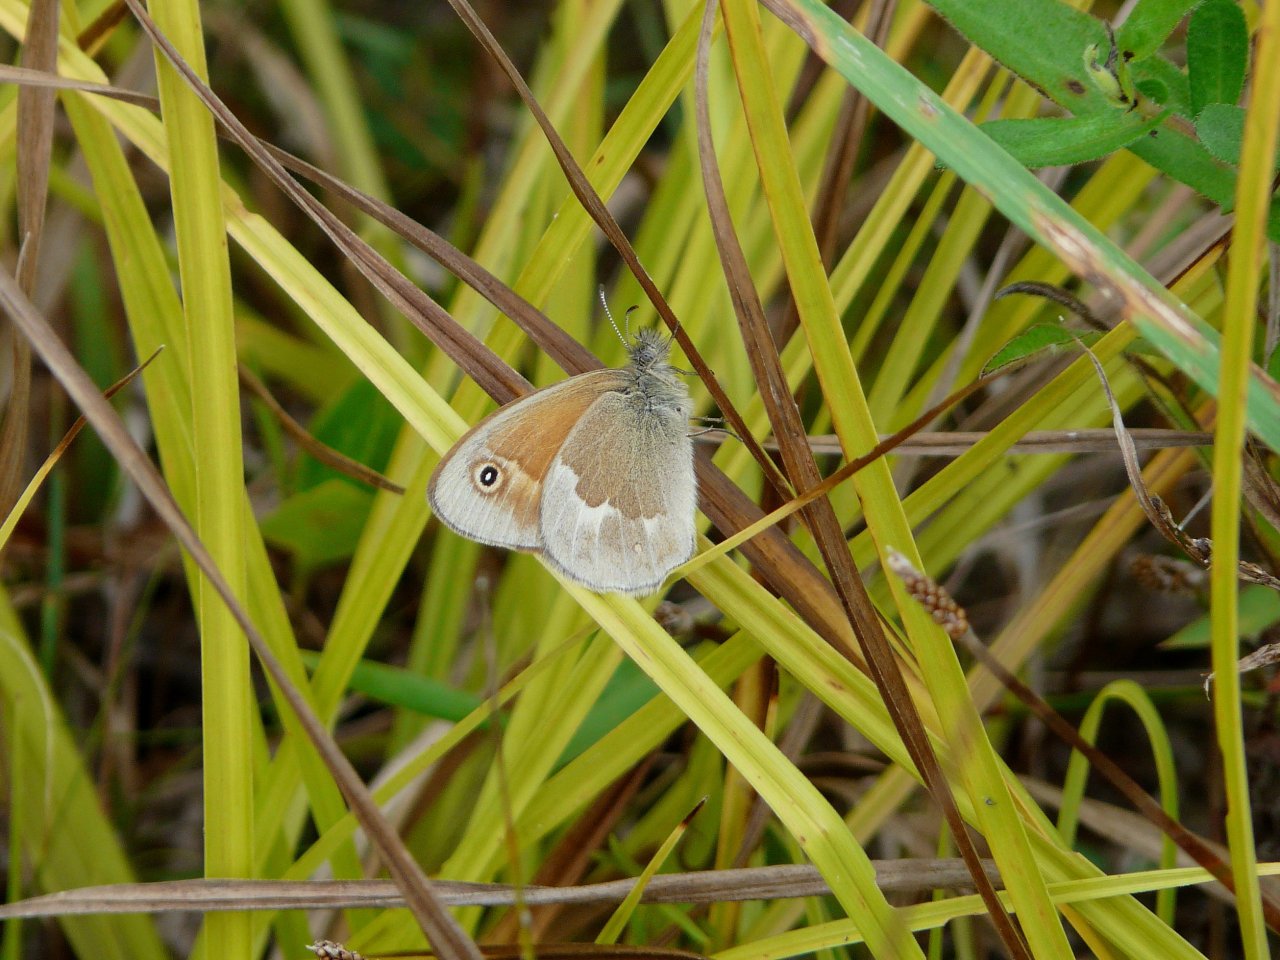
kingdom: Animalia
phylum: Arthropoda
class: Insecta
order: Lepidoptera
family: Nymphalidae
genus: Coenonympha
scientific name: Coenonympha tullia
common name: Large Heath
